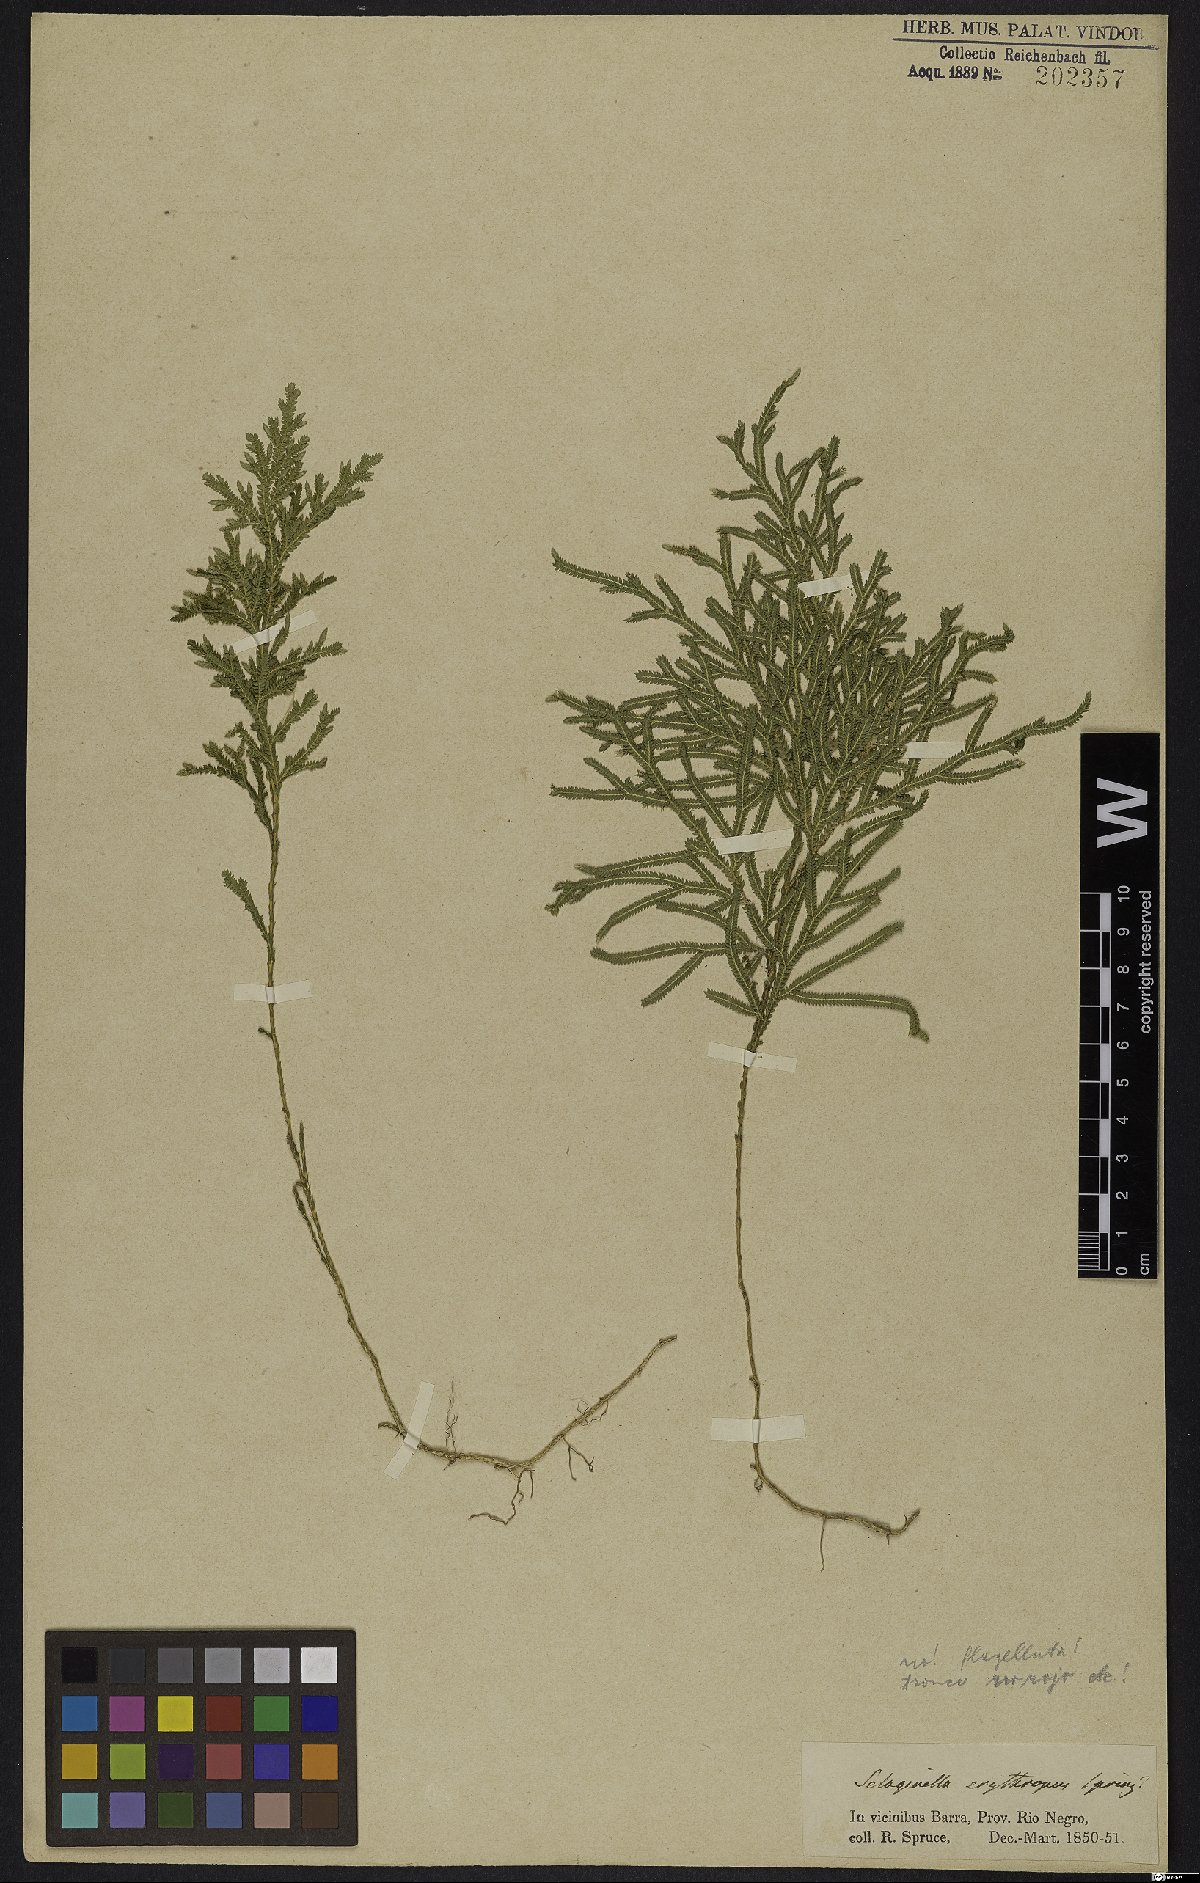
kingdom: Plantae
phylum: Tracheophyta
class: Lycopodiopsida
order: Selaginellales
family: Selaginellaceae
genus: Selaginella
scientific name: Selaginella erythropus
